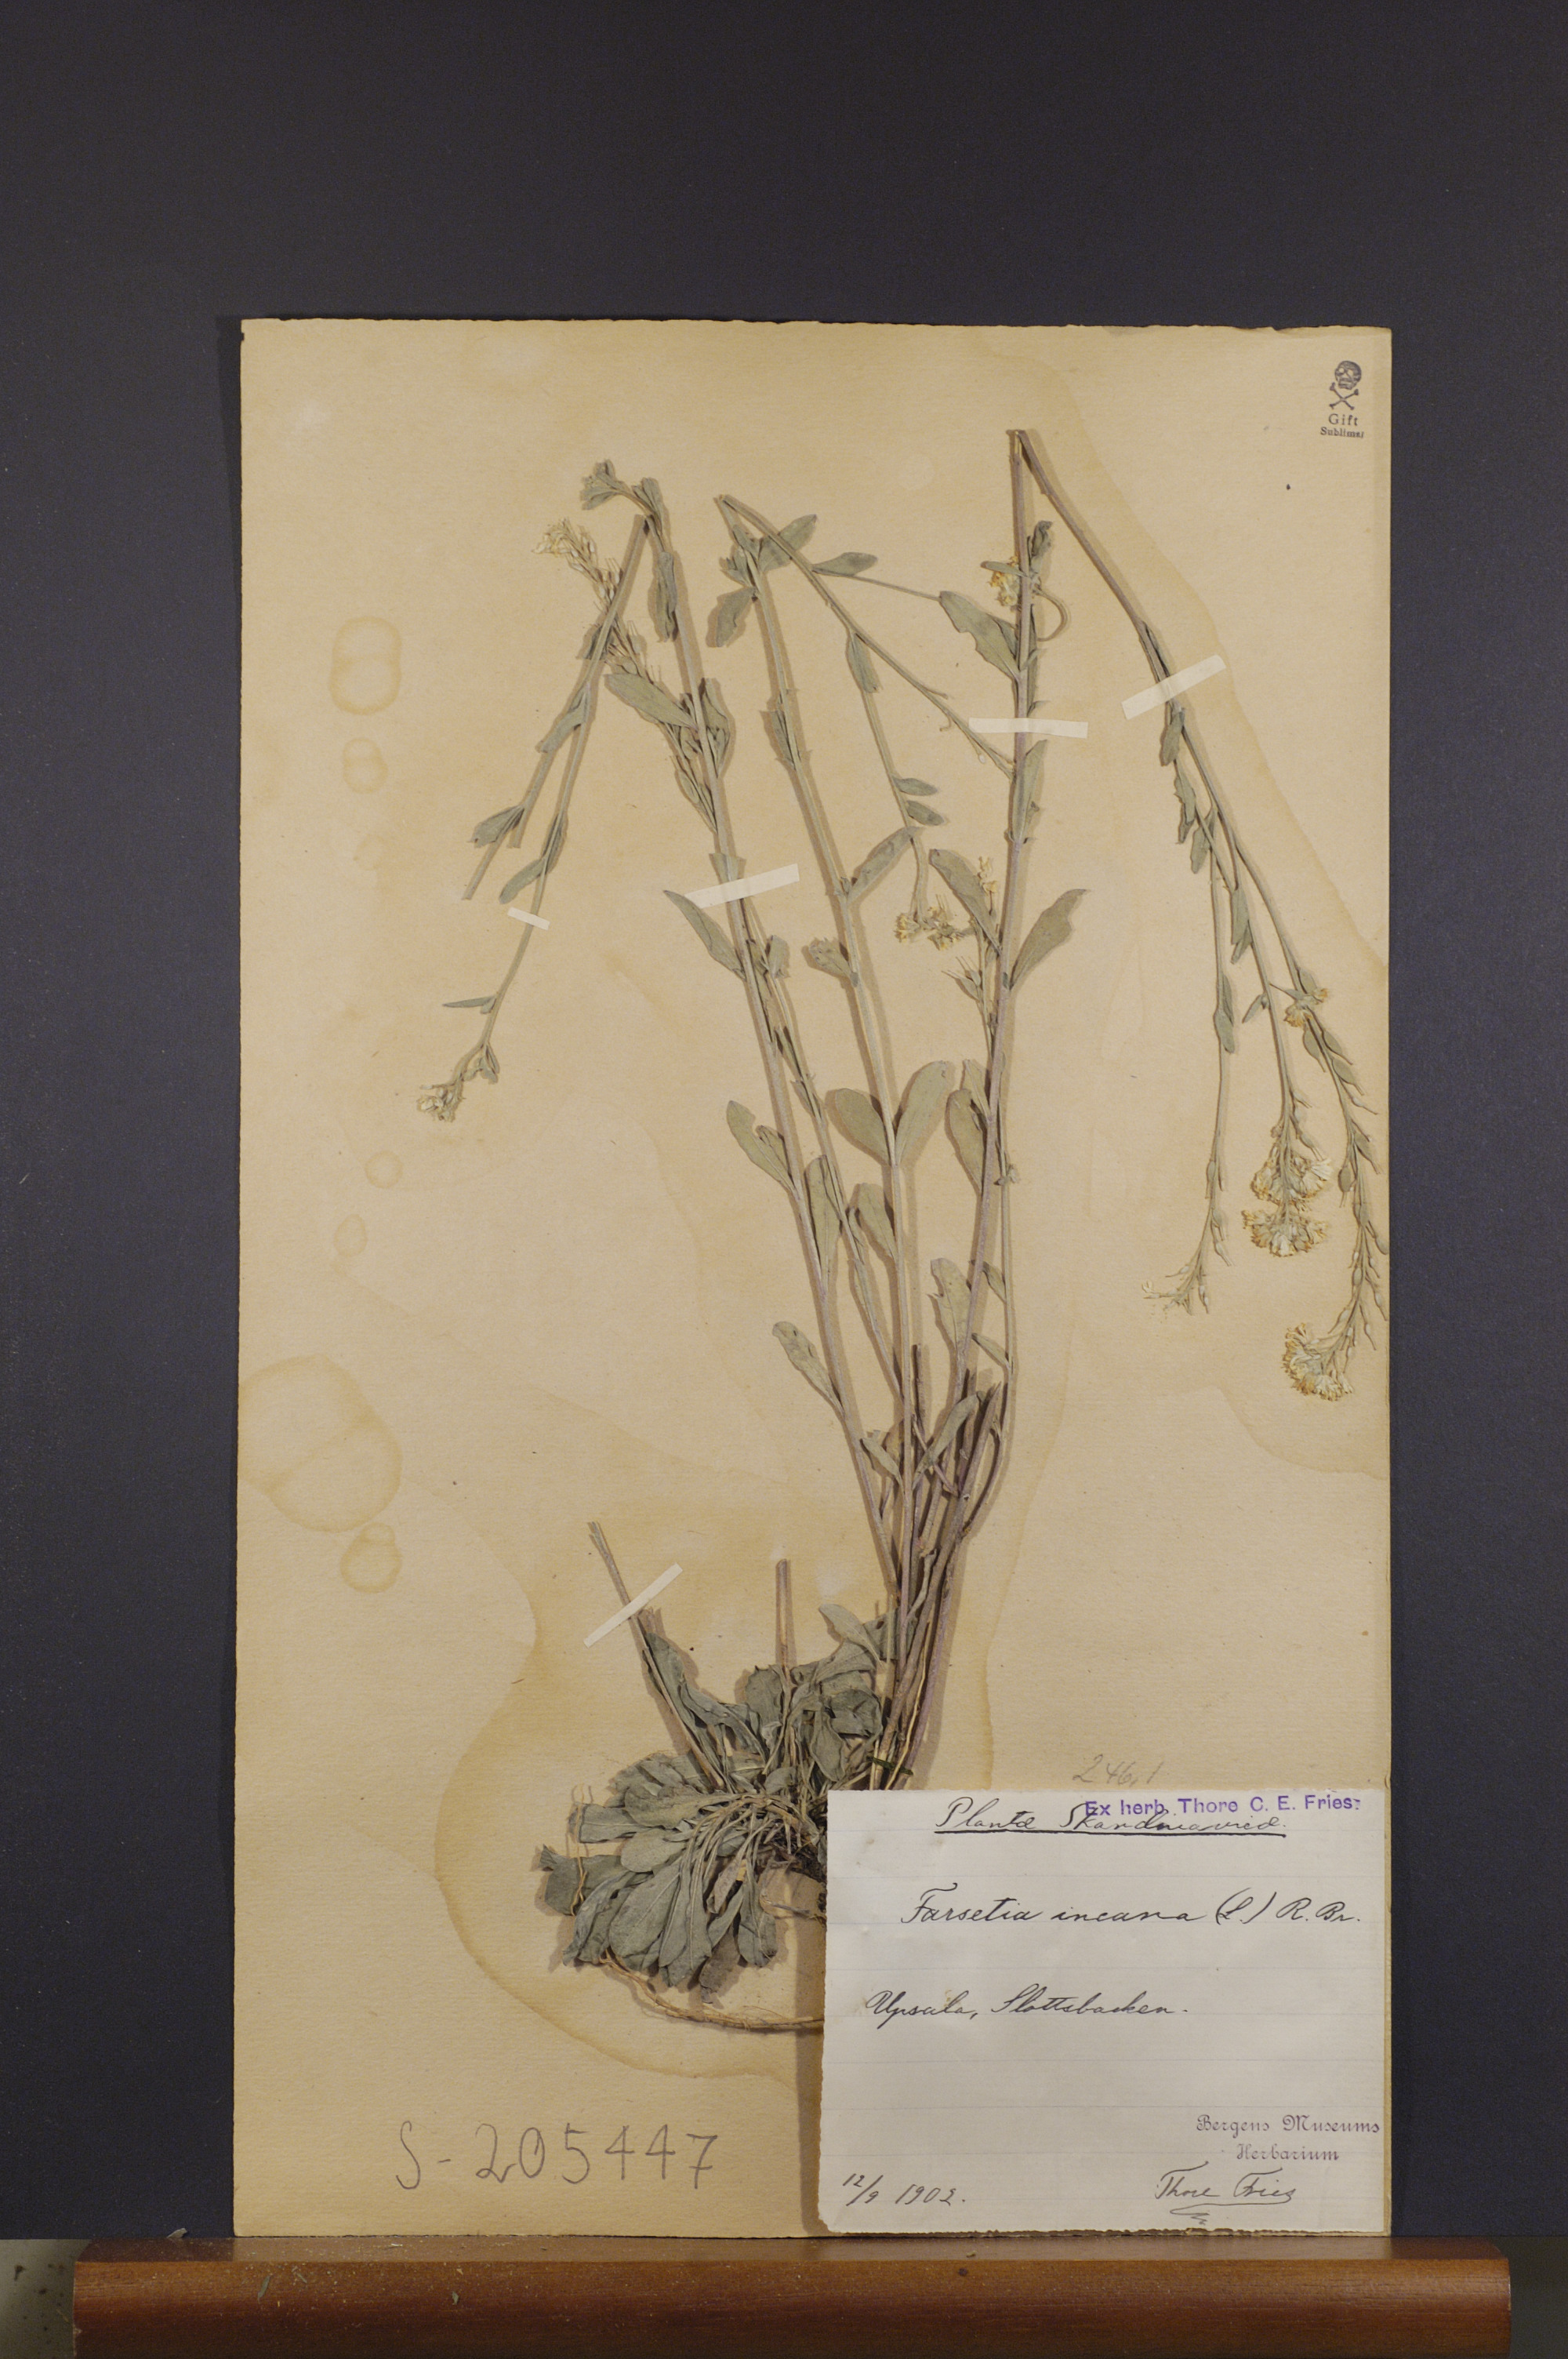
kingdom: Plantae
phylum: Tracheophyta
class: Magnoliopsida
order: Brassicales
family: Brassicaceae
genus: Berteroa
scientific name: Berteroa incana
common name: Hoary alison
